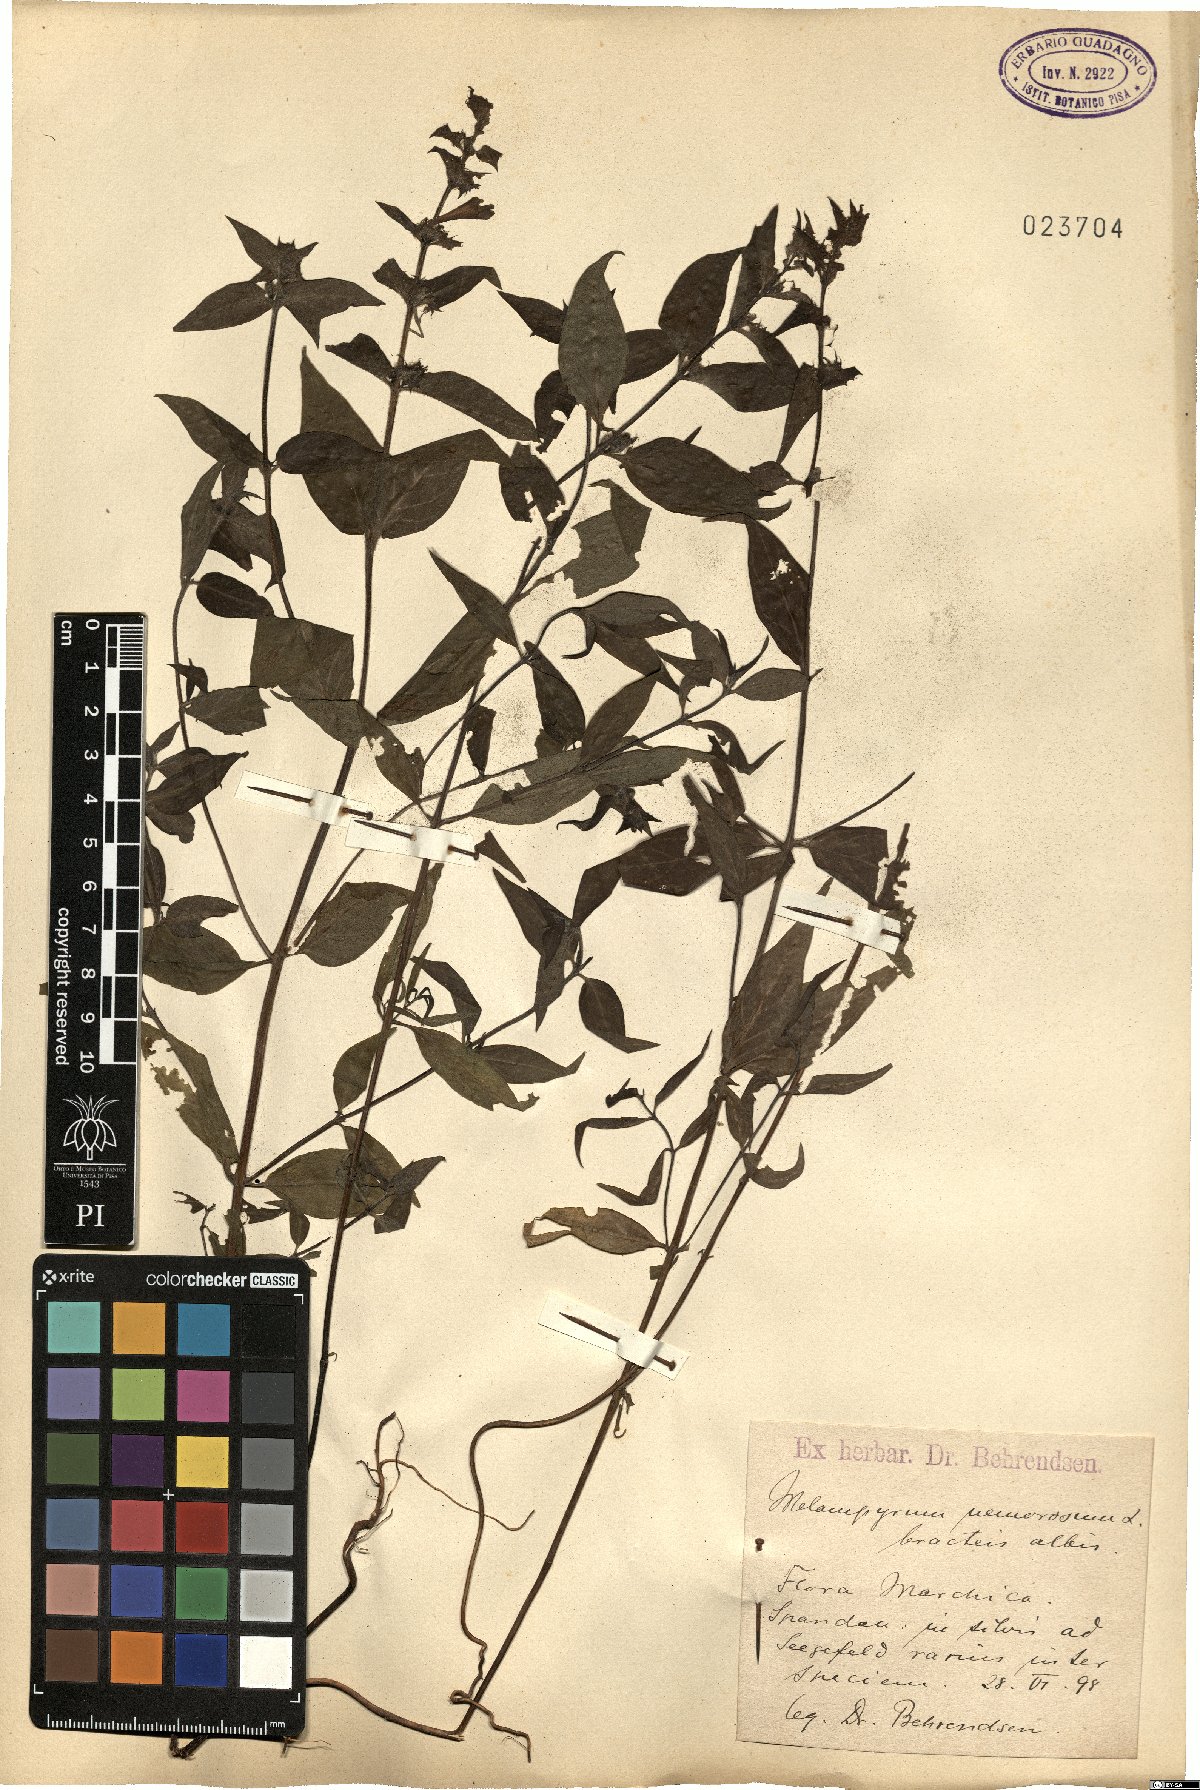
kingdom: Plantae
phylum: Tracheophyta
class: Magnoliopsida
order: Lamiales
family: Orobanchaceae
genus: Melampyrum
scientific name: Melampyrum nemorosum
